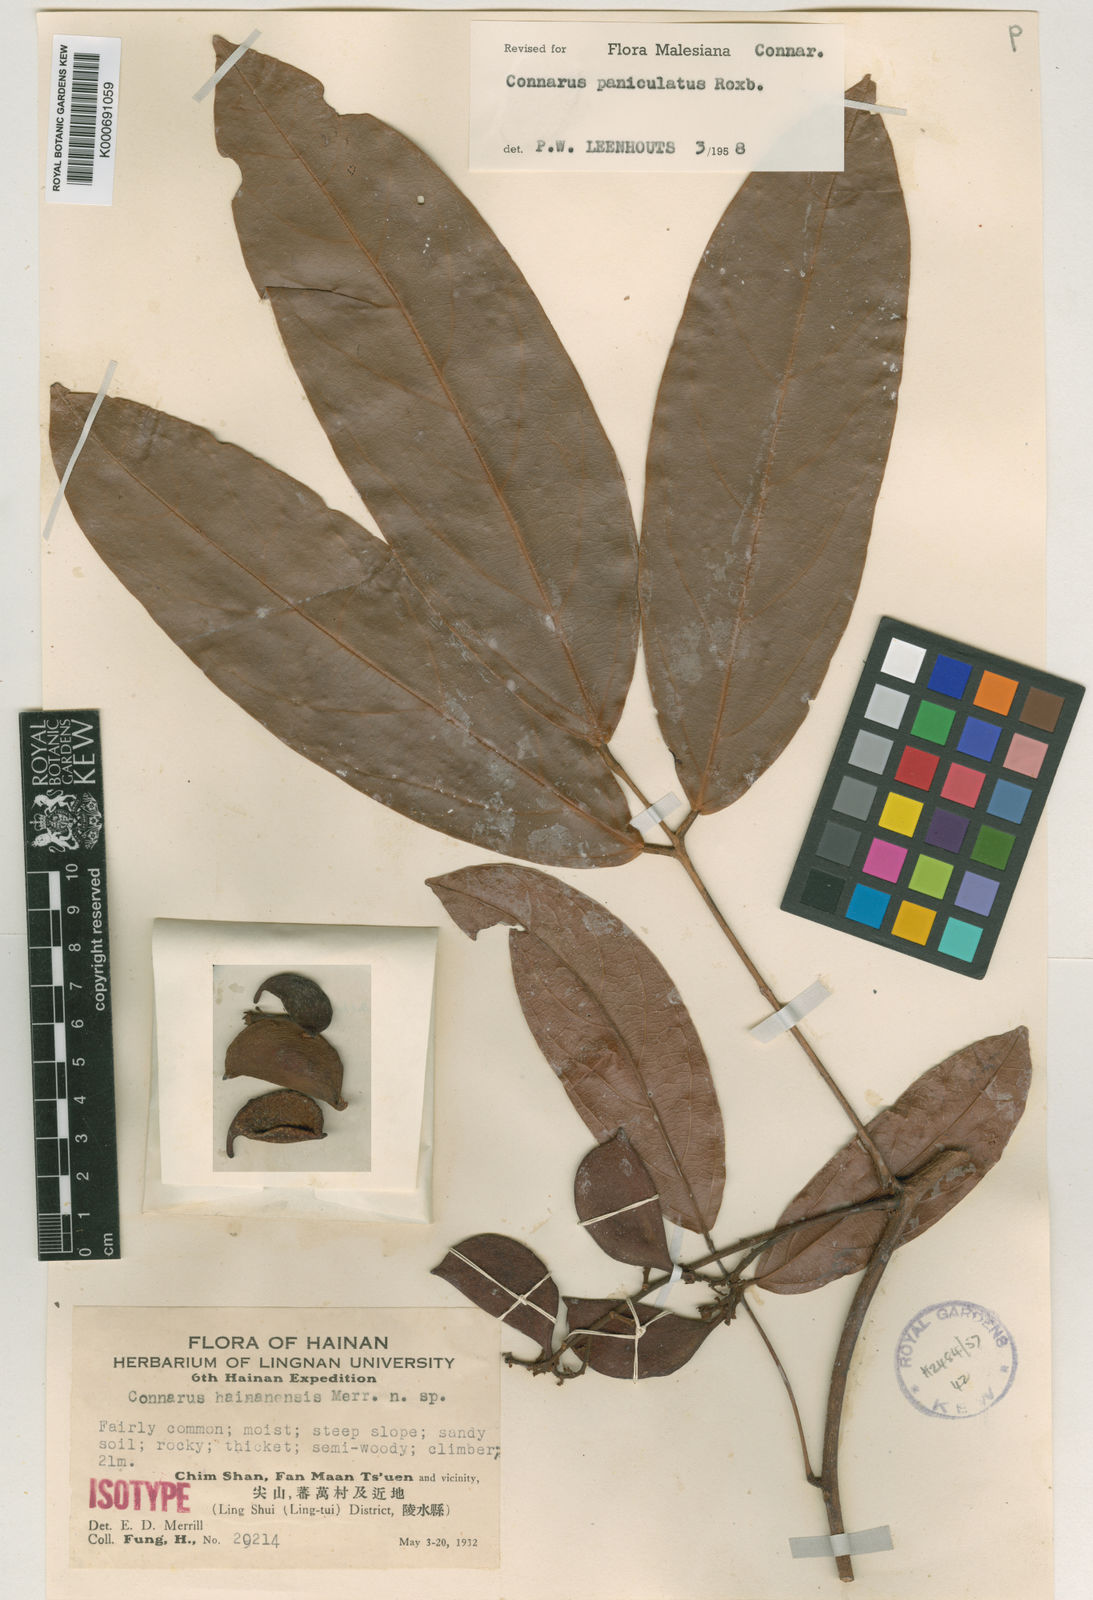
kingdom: Plantae
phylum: Tracheophyta
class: Magnoliopsida
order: Oxalidales
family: Connaraceae
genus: Connarus
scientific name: Connarus paniculatus
